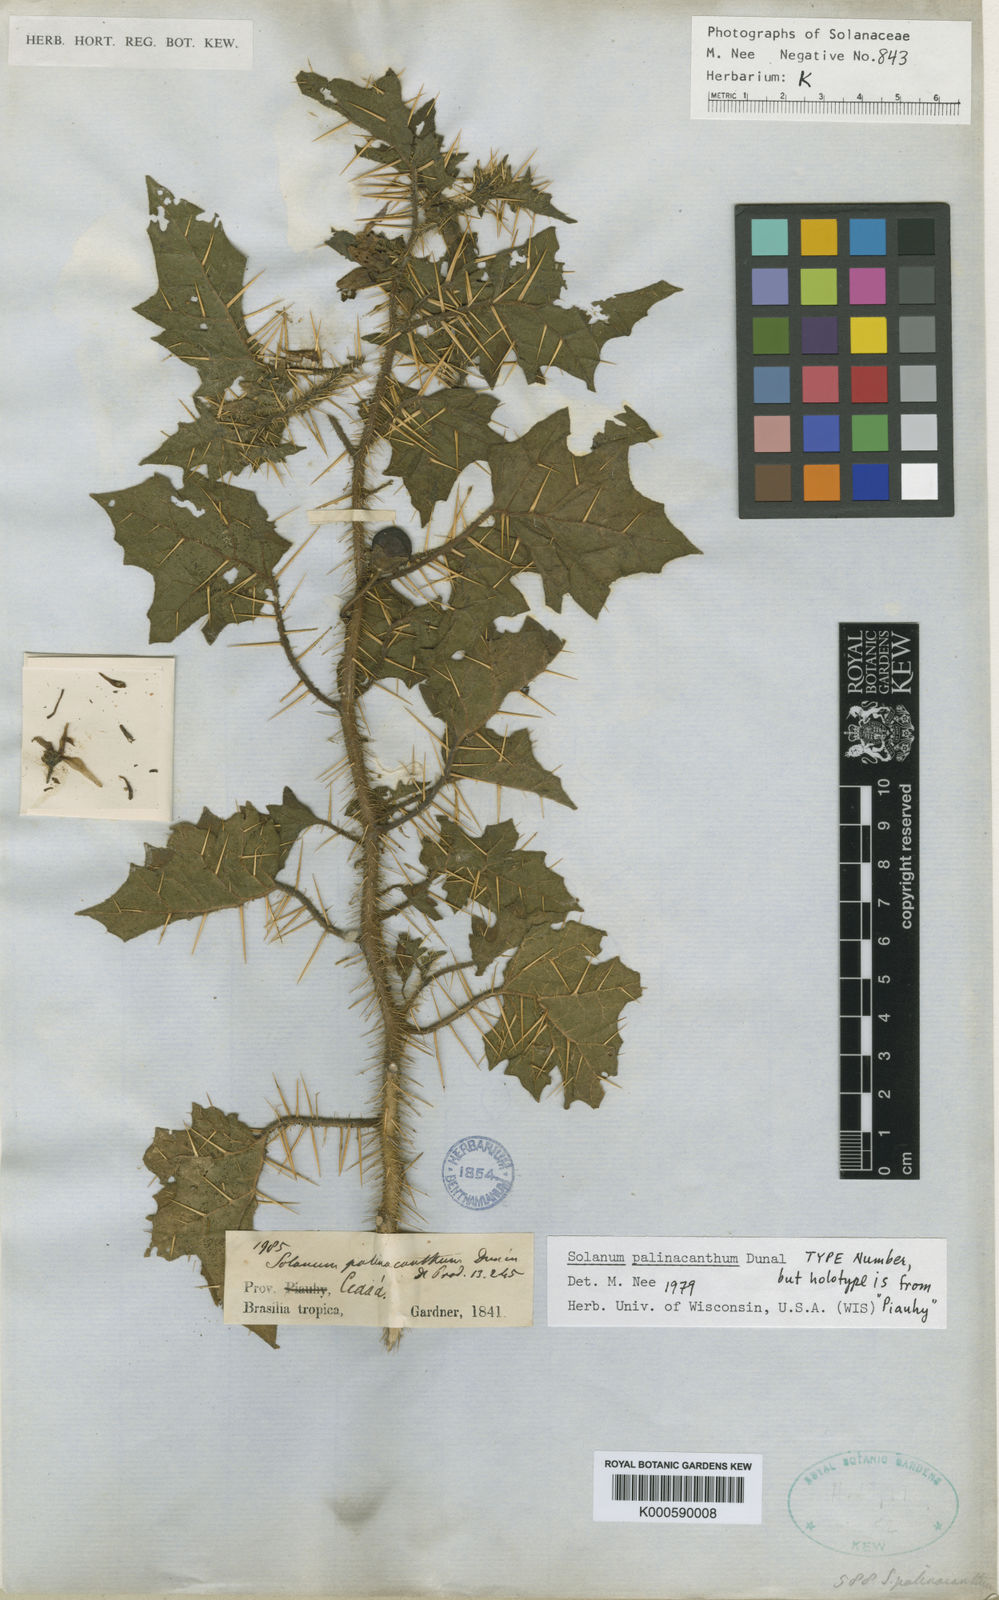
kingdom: Plantae
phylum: Tracheophyta
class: Magnoliopsida
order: Solanales
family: Solanaceae
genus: Solanum
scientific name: Solanum palinacanthum
